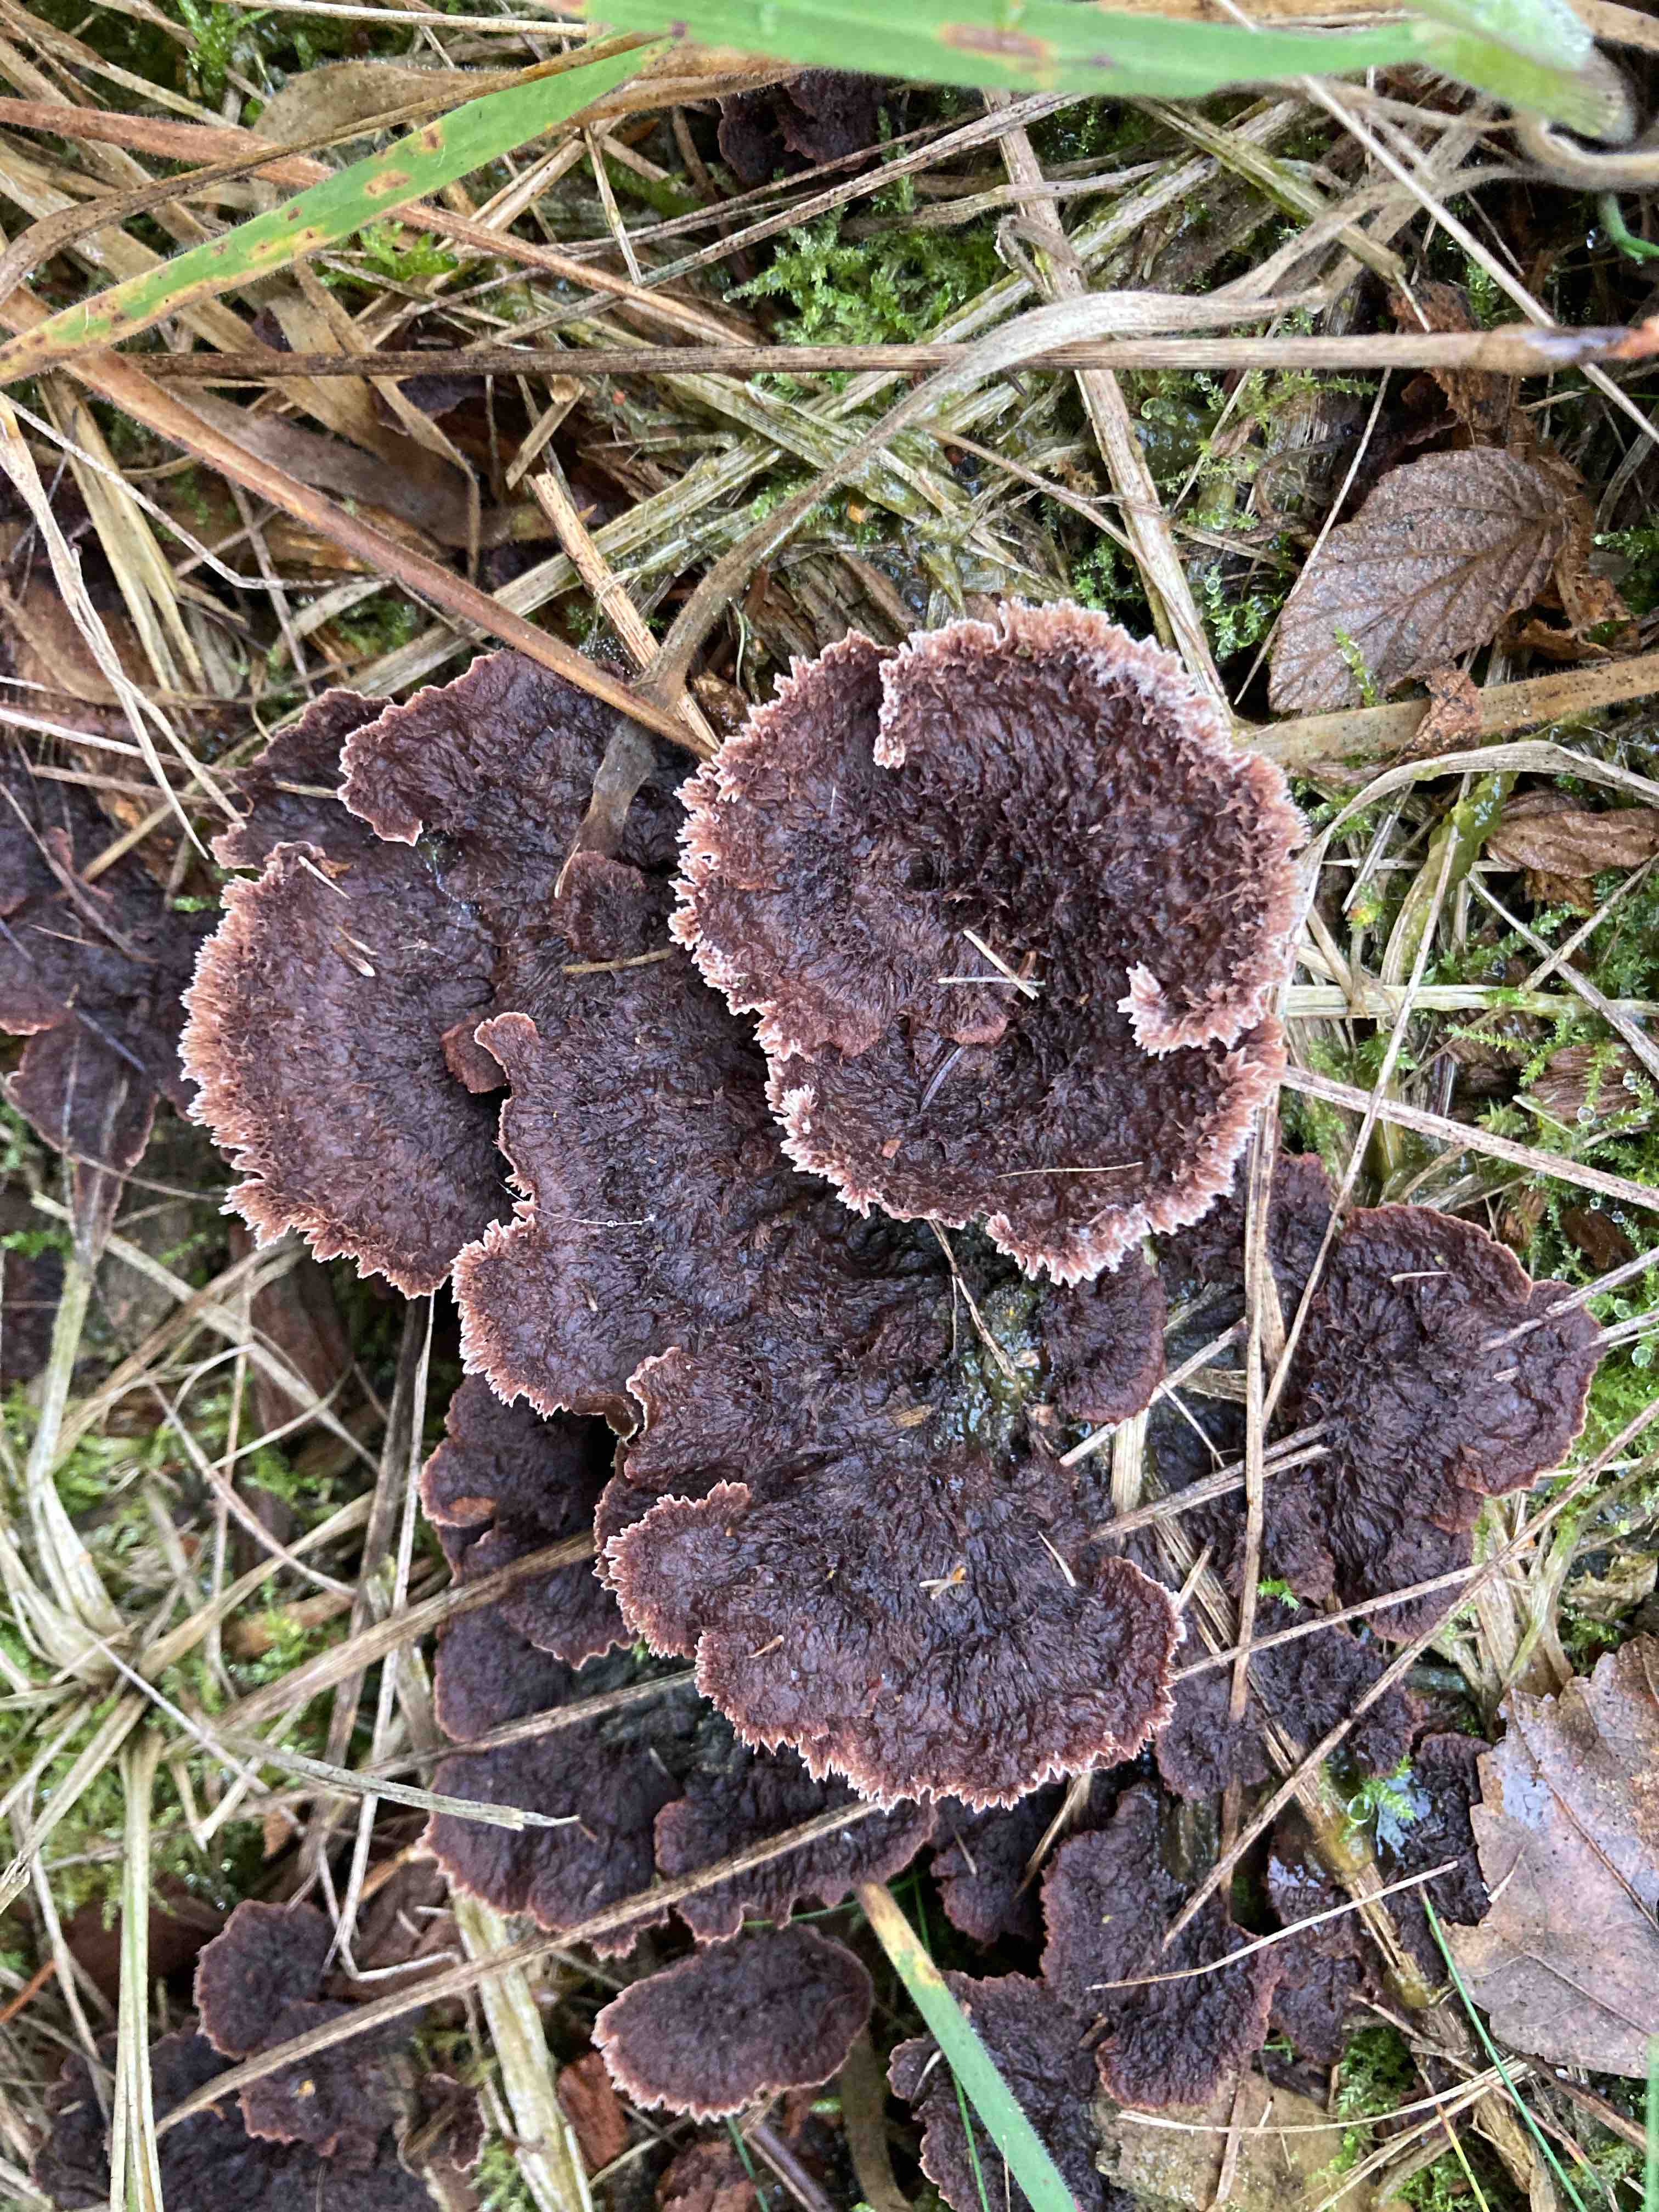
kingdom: Fungi
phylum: Basidiomycota
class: Agaricomycetes
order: Thelephorales
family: Thelephoraceae
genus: Thelephora
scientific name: Thelephora terrestris
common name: fliget frynsesvamp
